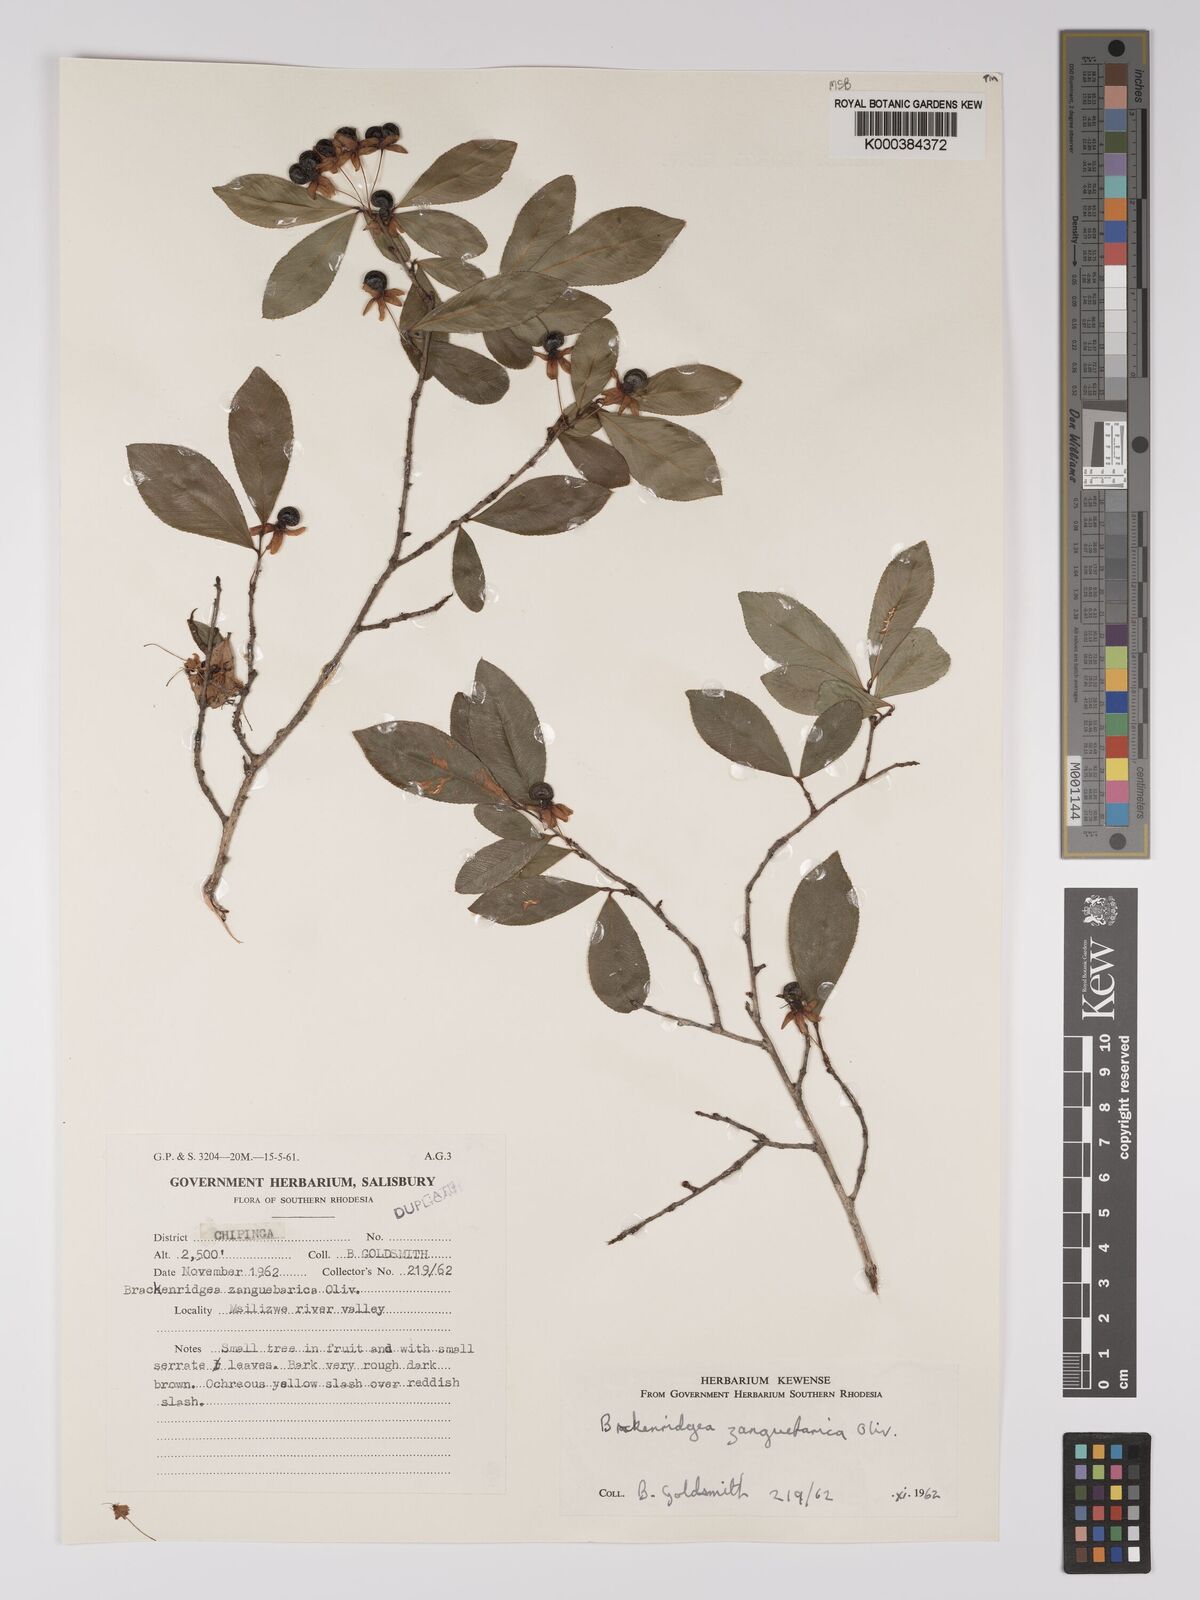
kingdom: Plantae
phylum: Tracheophyta
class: Magnoliopsida
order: Malpighiales
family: Ochnaceae
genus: Brackenridgea
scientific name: Brackenridgea zanguebarica
